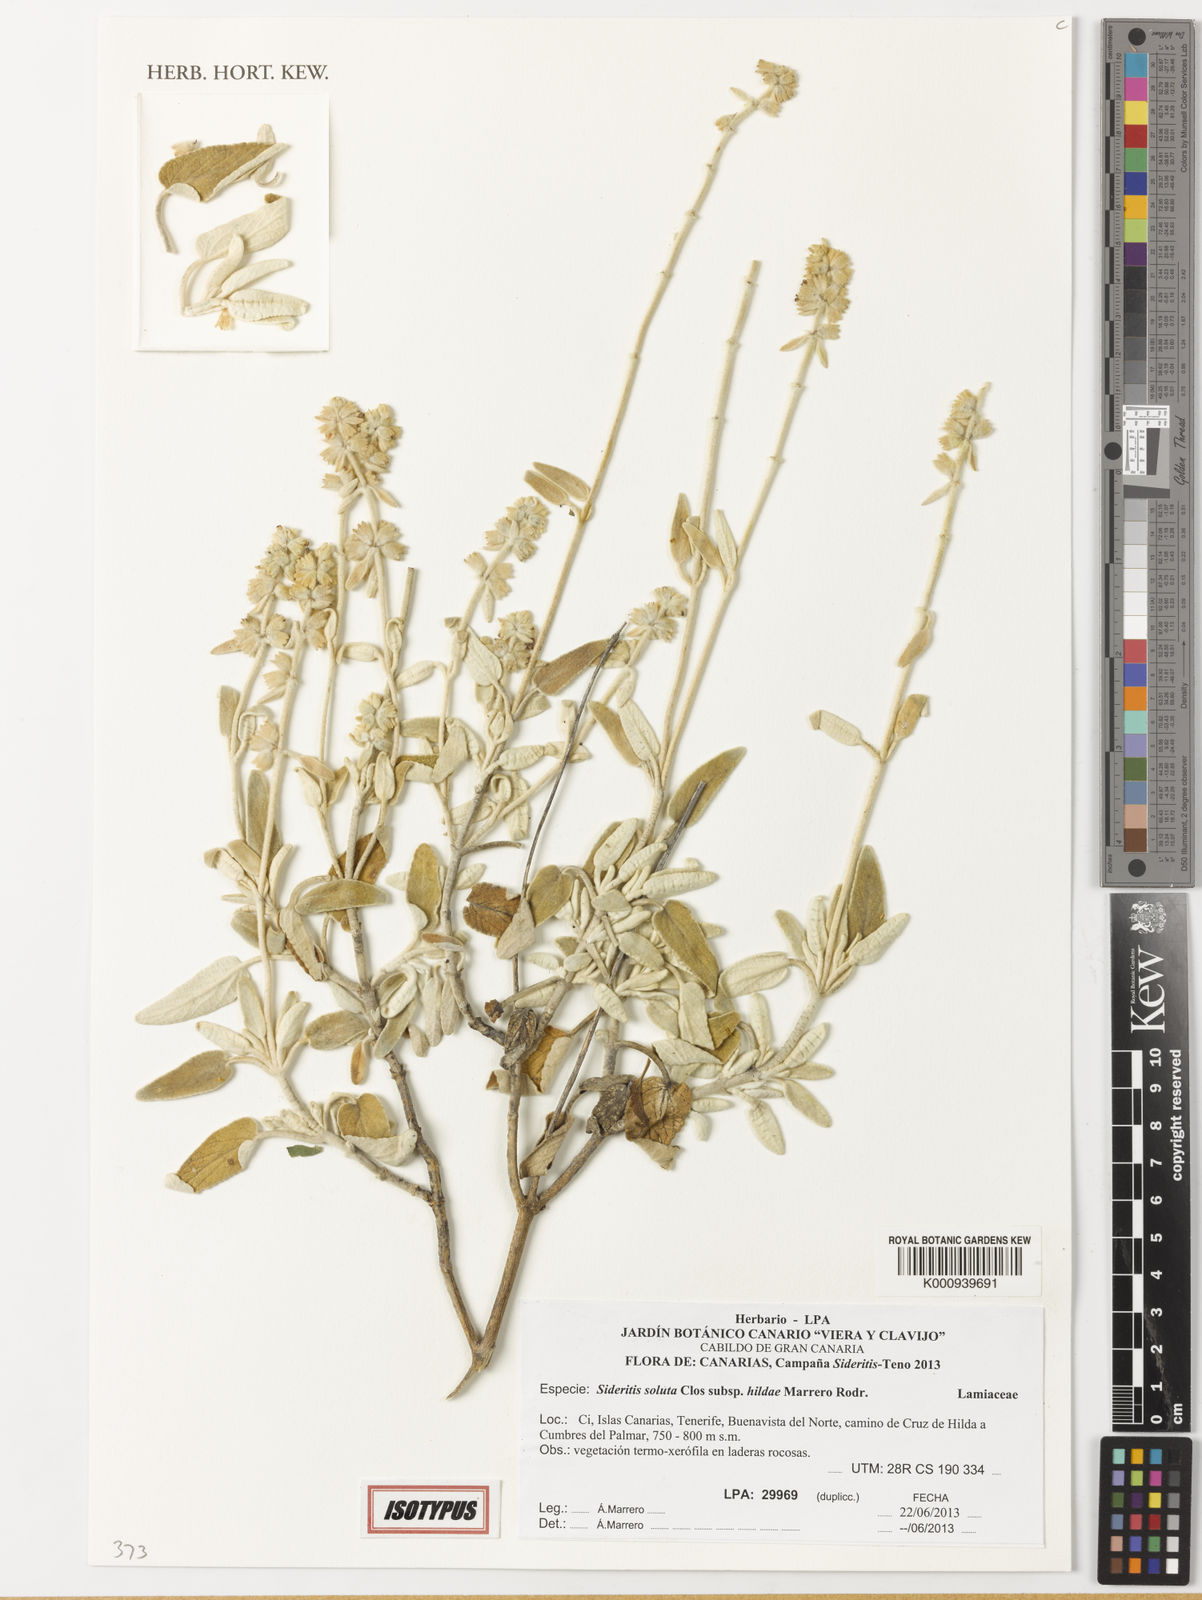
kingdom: Plantae
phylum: Tracheophyta
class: Magnoliopsida
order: Lamiales
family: Lamiaceae
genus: Sideritis
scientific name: Sideritis soluta
